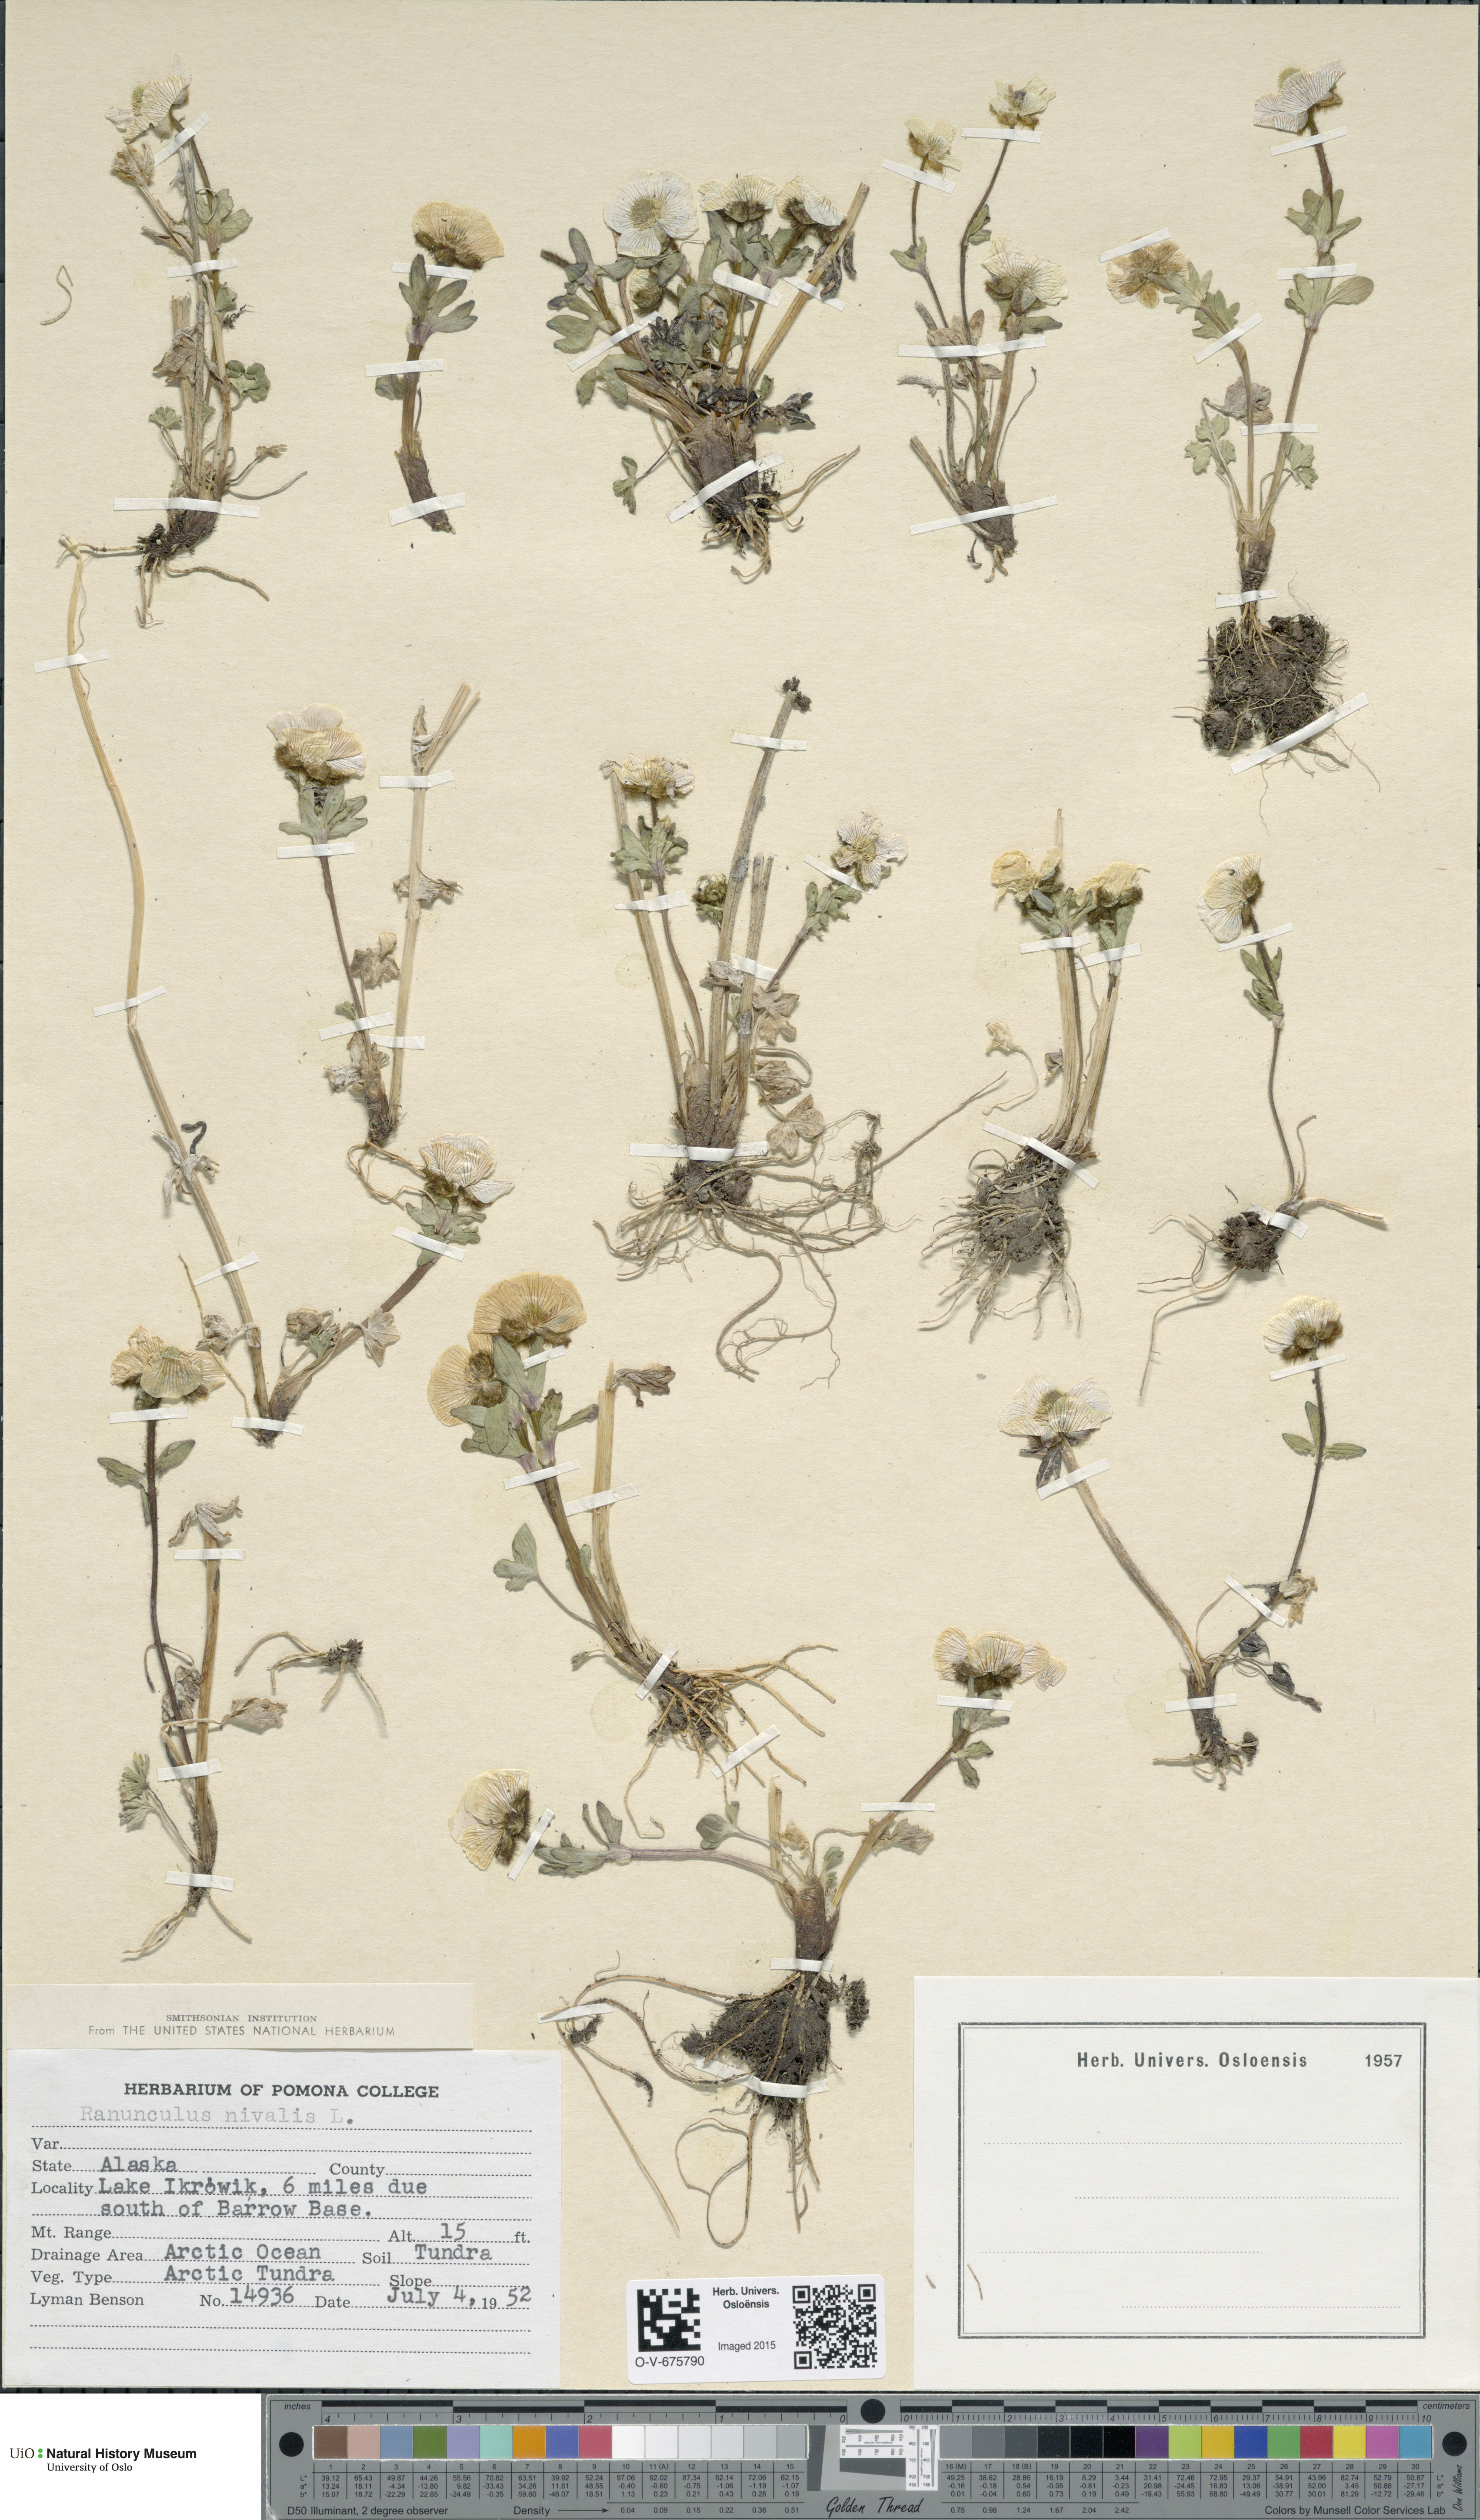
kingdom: Plantae
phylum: Tracheophyta
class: Magnoliopsida
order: Ranunculales
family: Ranunculaceae
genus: Ranunculus
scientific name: Ranunculus nivalis
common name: Snow buttercup
